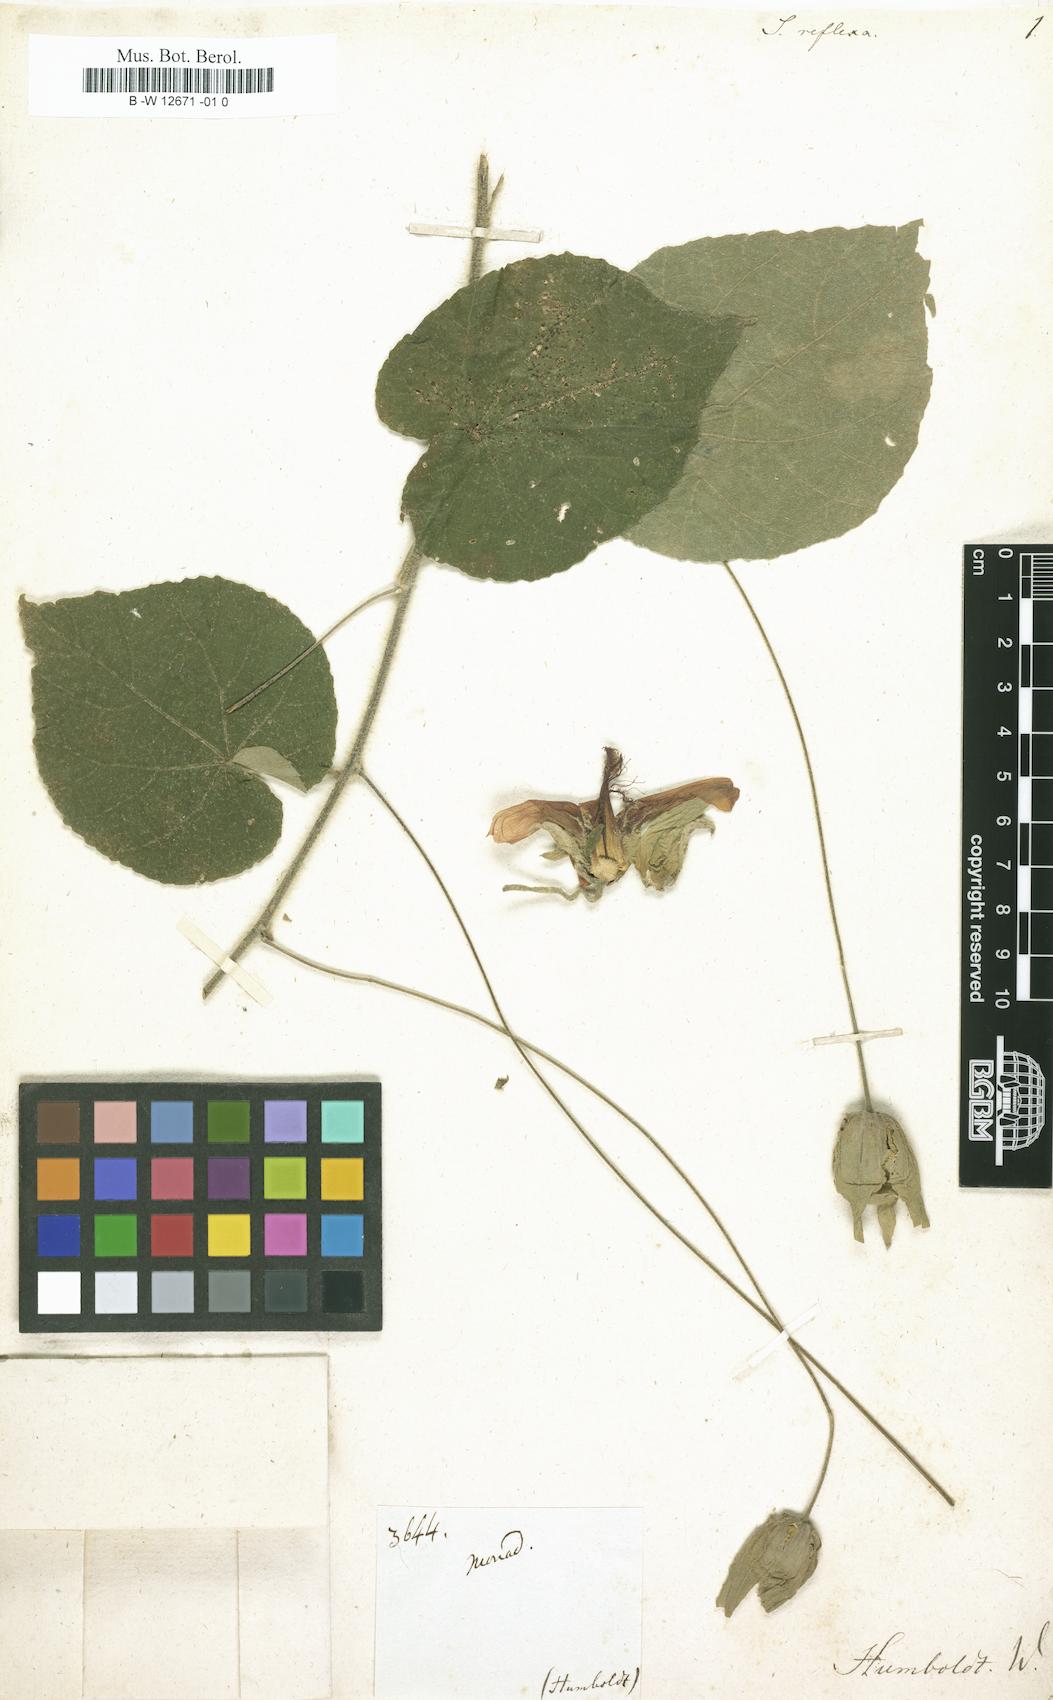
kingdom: Plantae
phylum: Tracheophyta
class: Magnoliopsida
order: Malvales
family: Malvaceae
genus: Abutilon
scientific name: Abutilon reflexum
